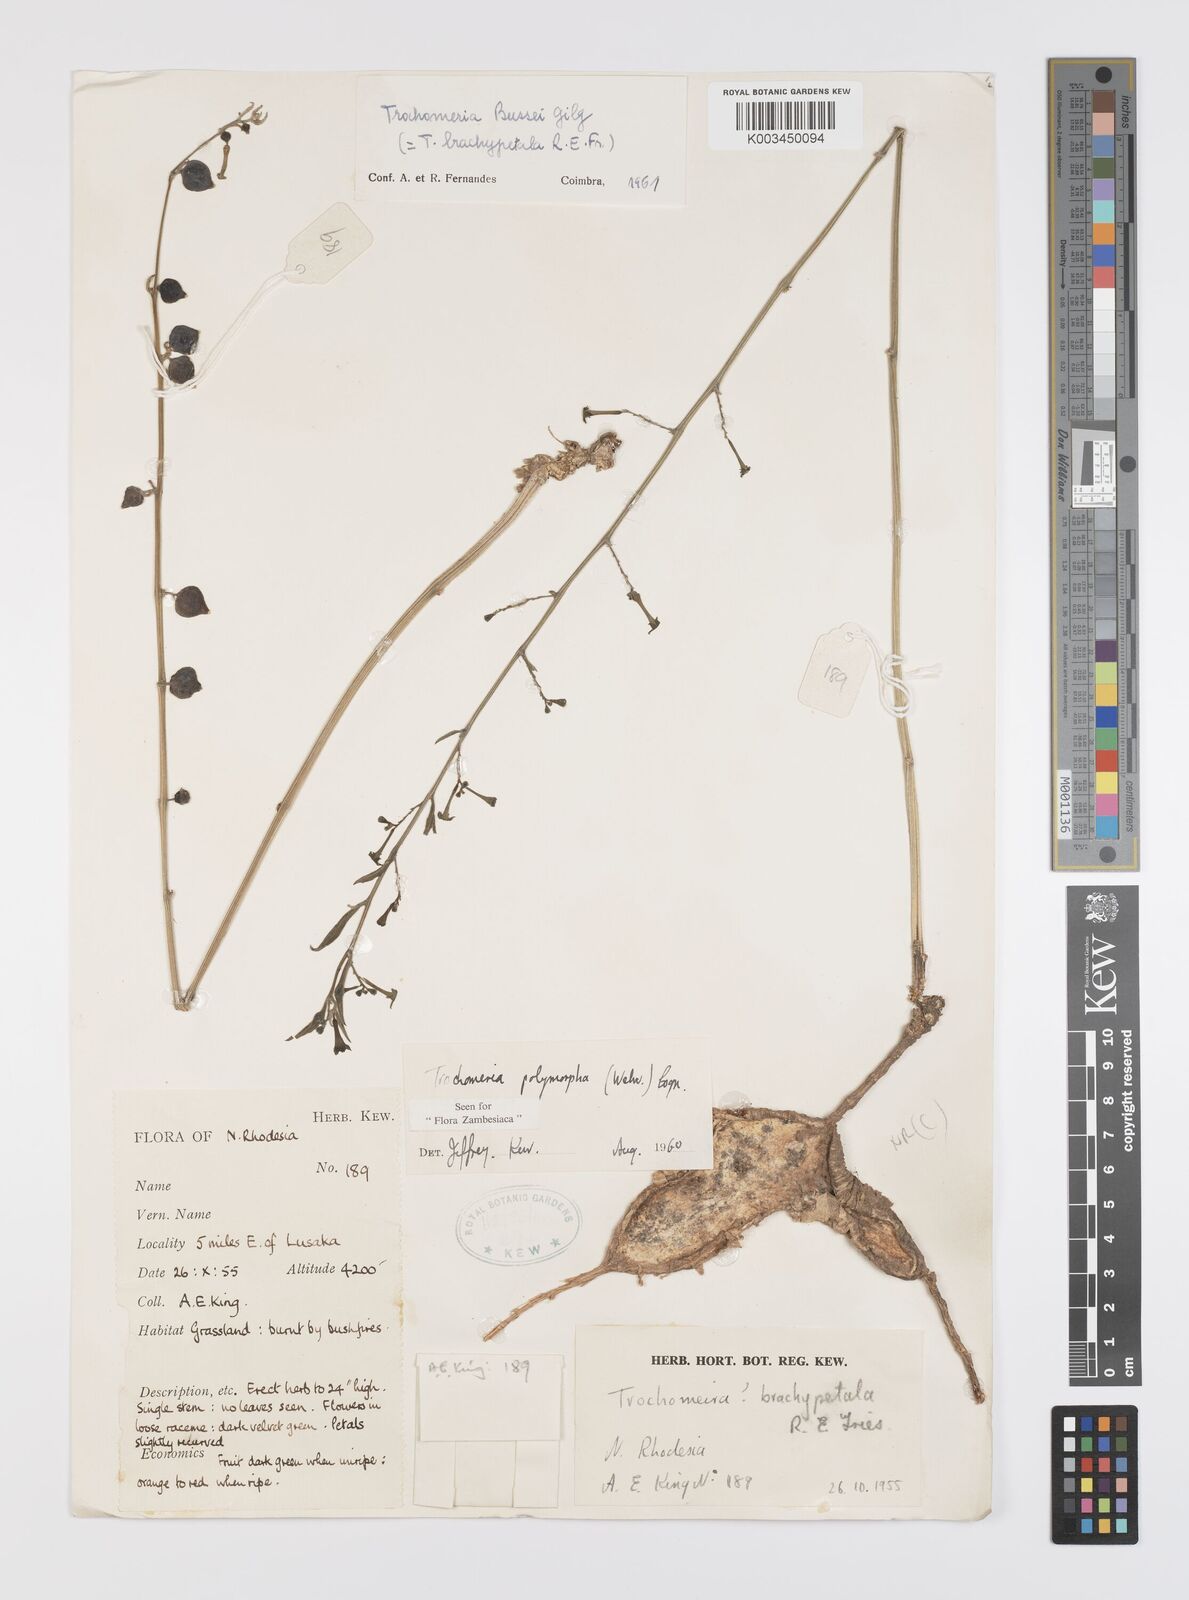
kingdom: Plantae
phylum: Tracheophyta
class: Magnoliopsida
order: Cucurbitales
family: Cucurbitaceae
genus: Trochomeria
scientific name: Trochomeria polymorpha
